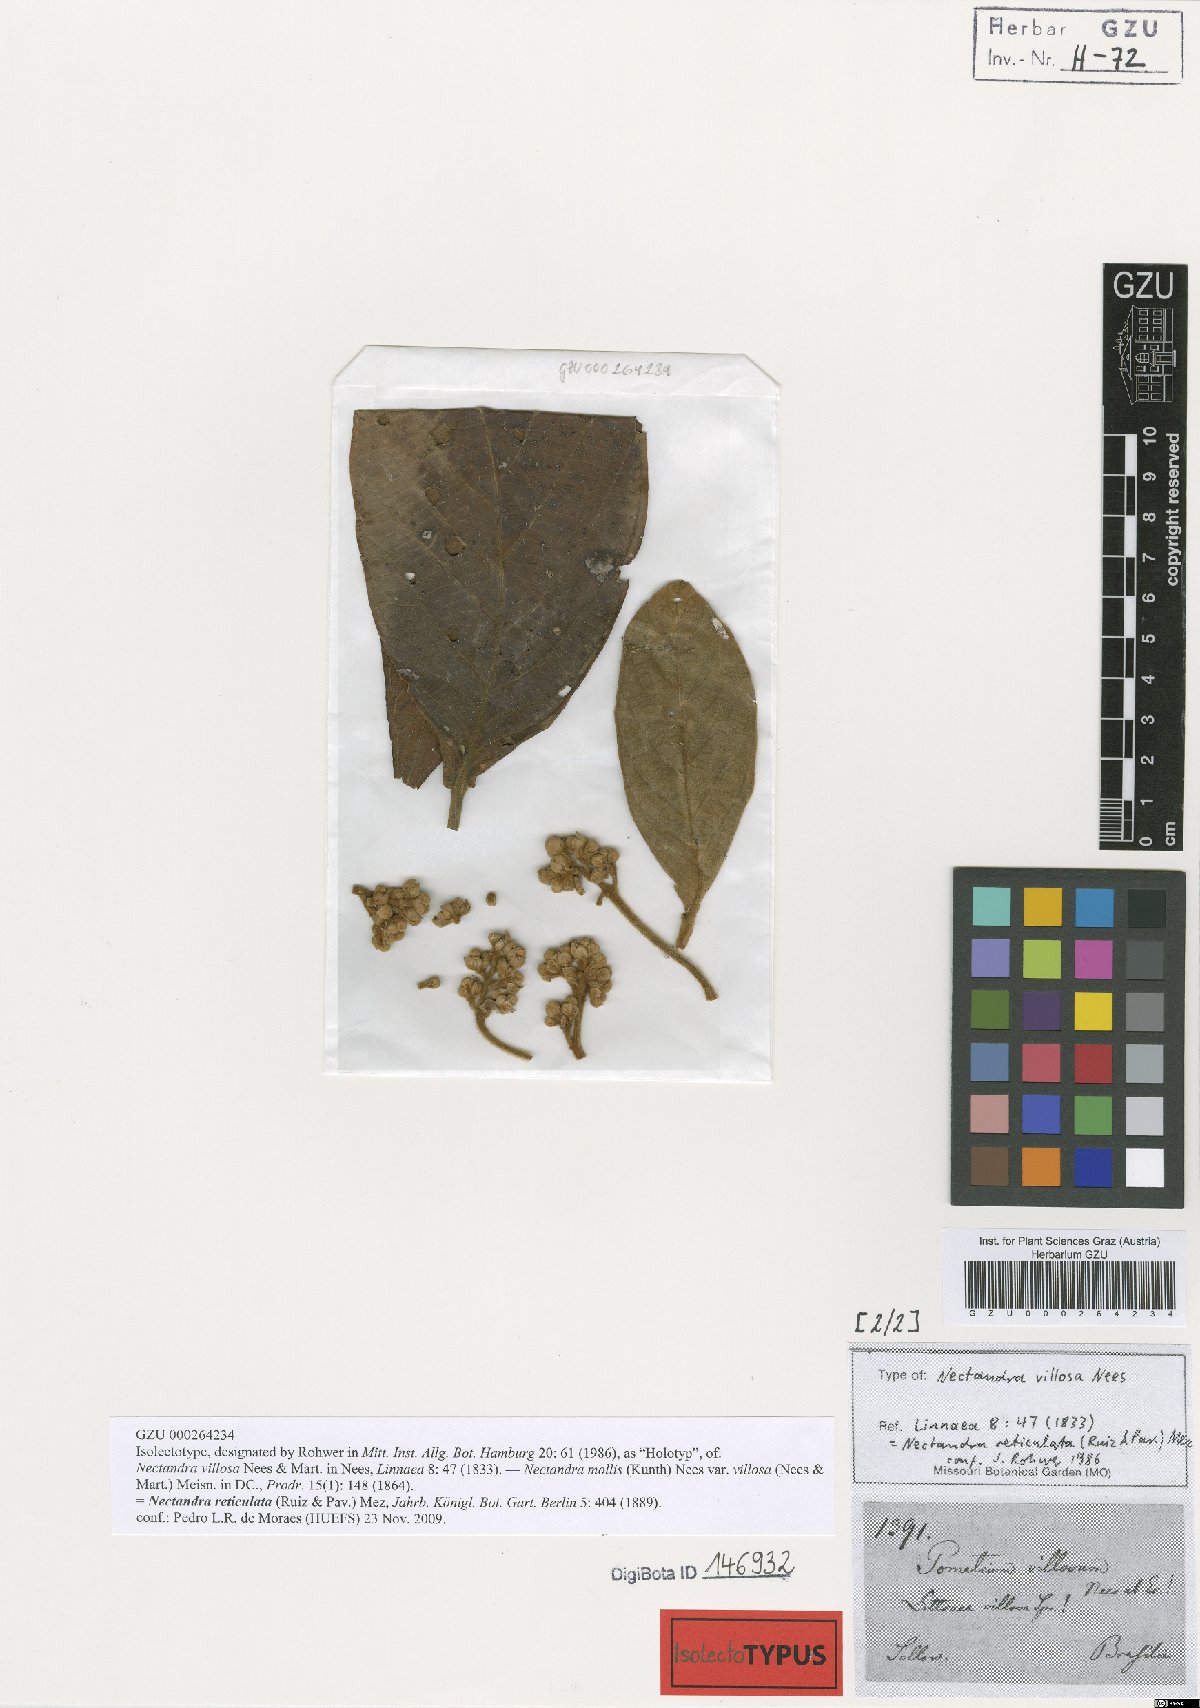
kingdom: Plantae
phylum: Tracheophyta
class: Magnoliopsida
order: Laurales
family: Lauraceae
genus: Nectandra
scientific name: Nectandra villosa
